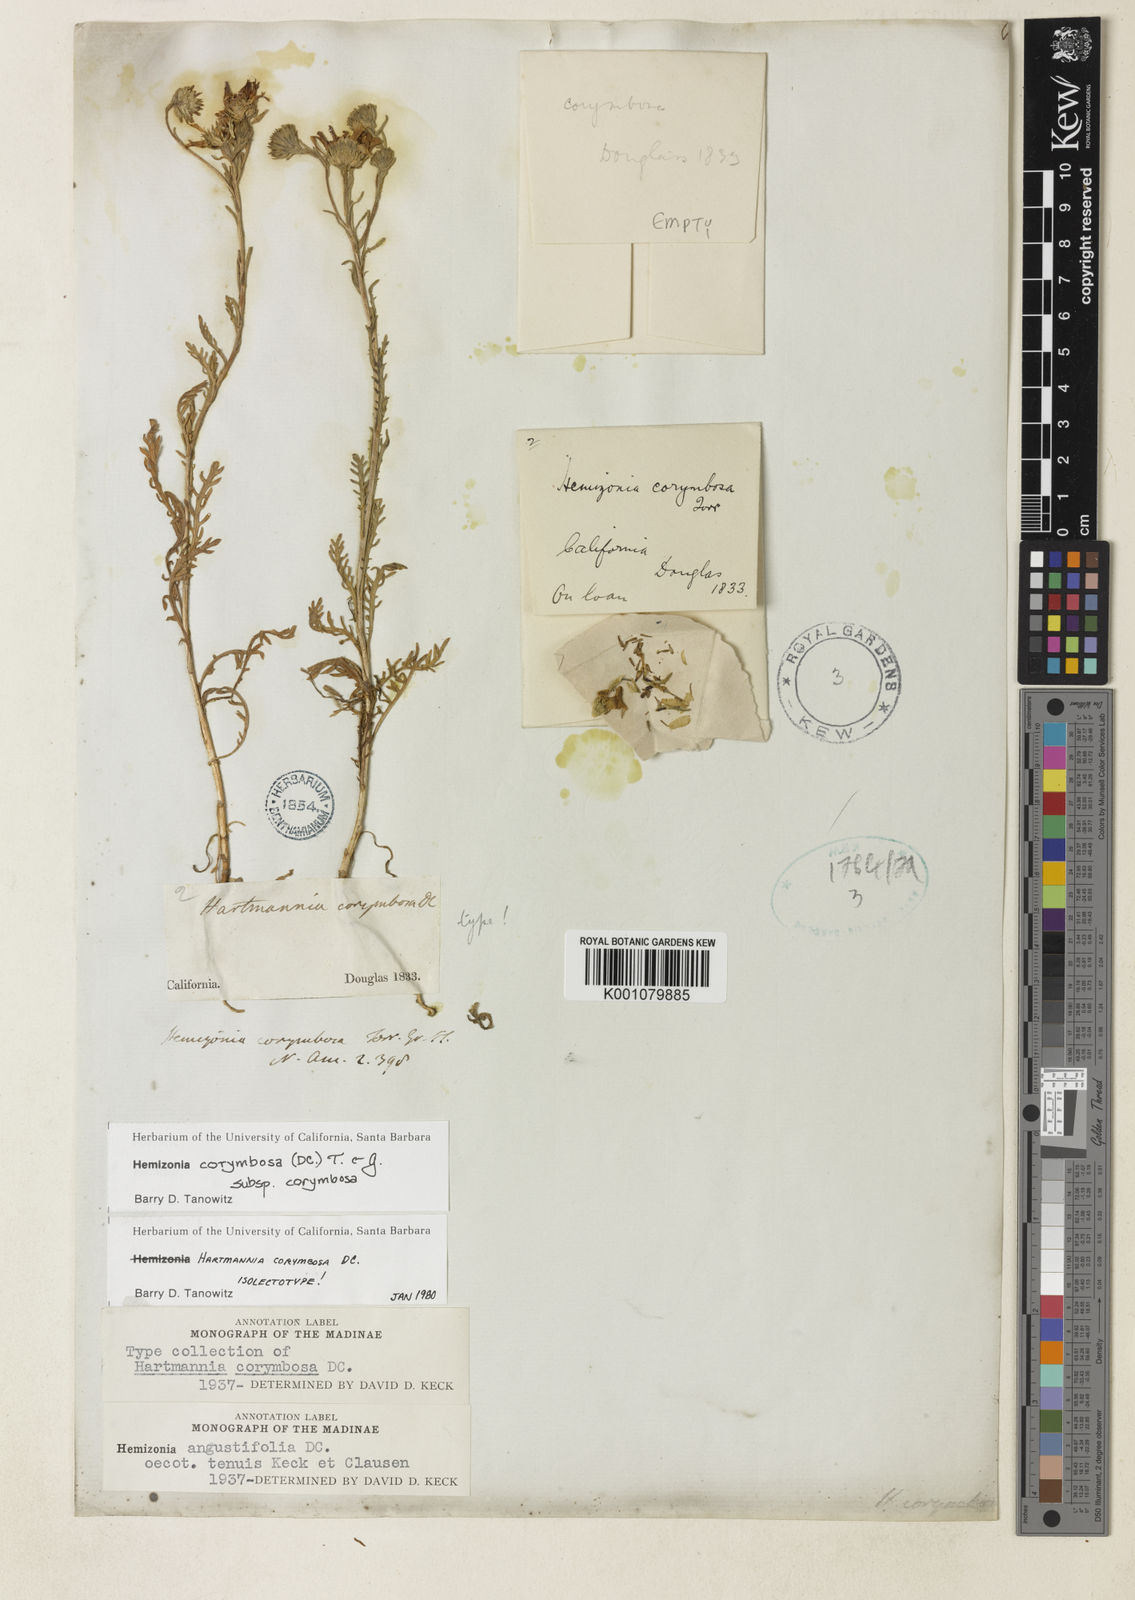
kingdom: Plantae
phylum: Tracheophyta
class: Magnoliopsida
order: Asterales
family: Asteraceae
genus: Hemizonia
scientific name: Hemizonia congesta
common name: Hayfield tarweed
